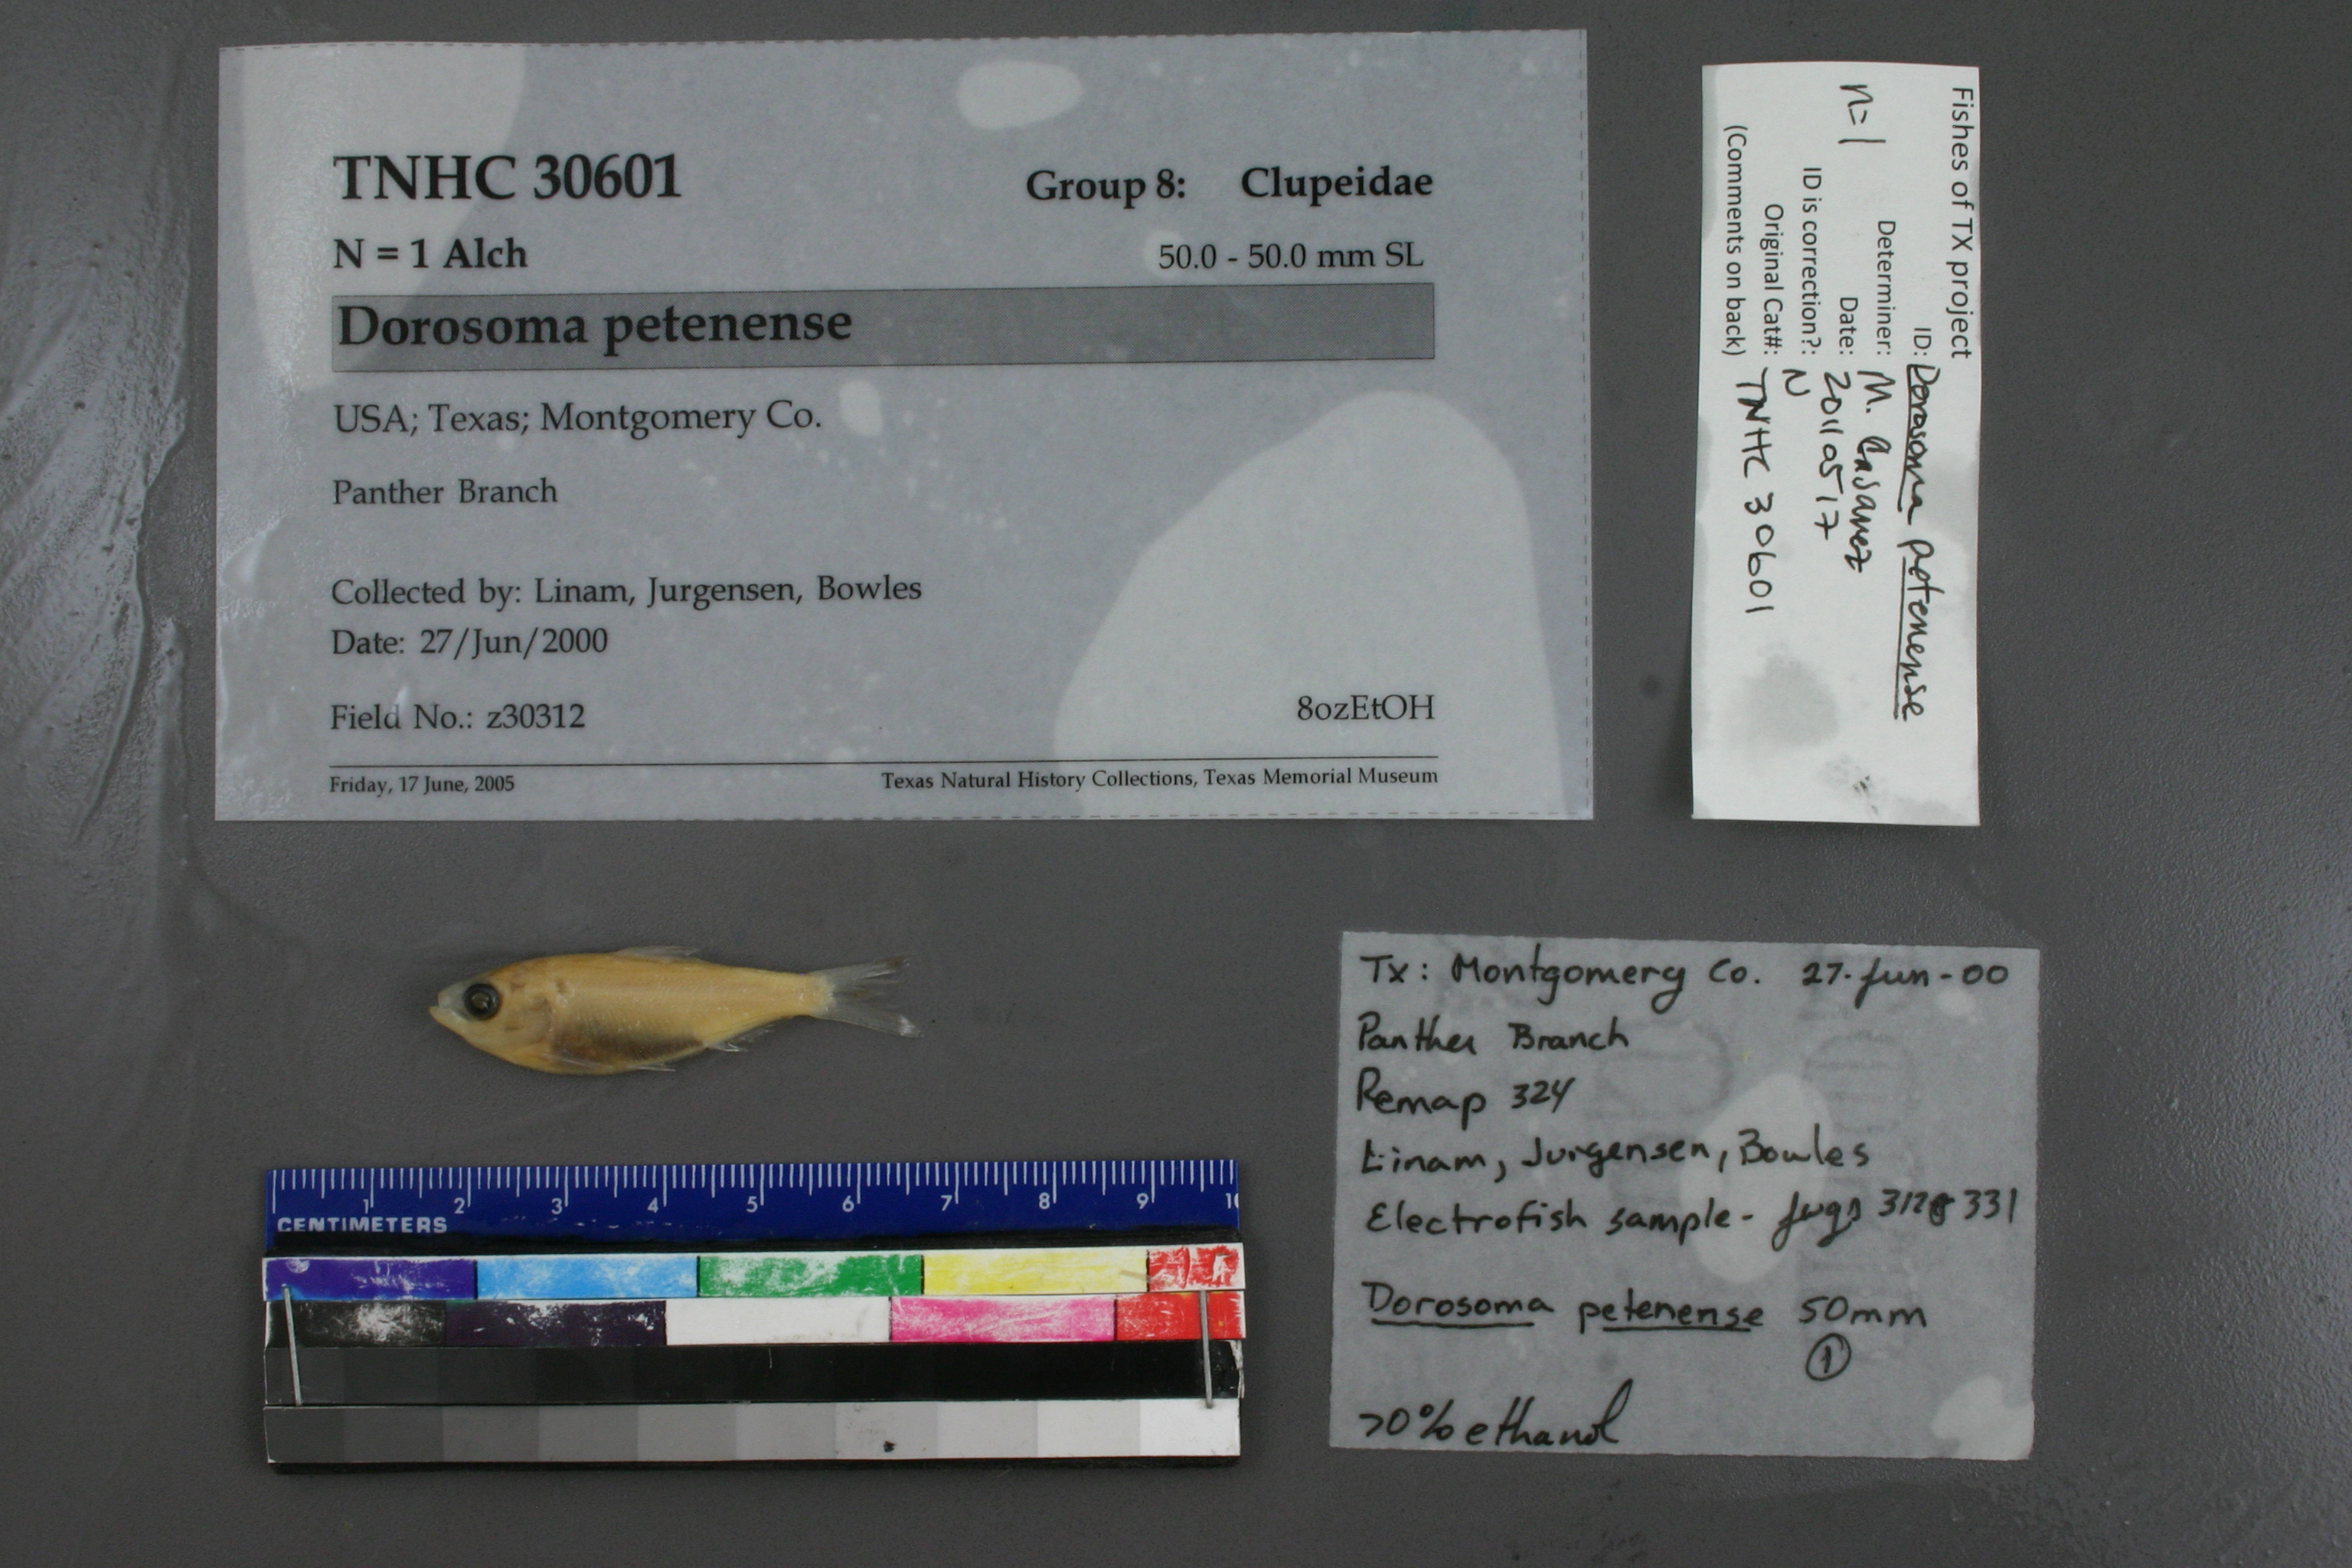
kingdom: Animalia
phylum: Chordata
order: Clupeiformes
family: Clupeidae
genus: Dorosoma
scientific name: Dorosoma petenense
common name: Threadfin shad
